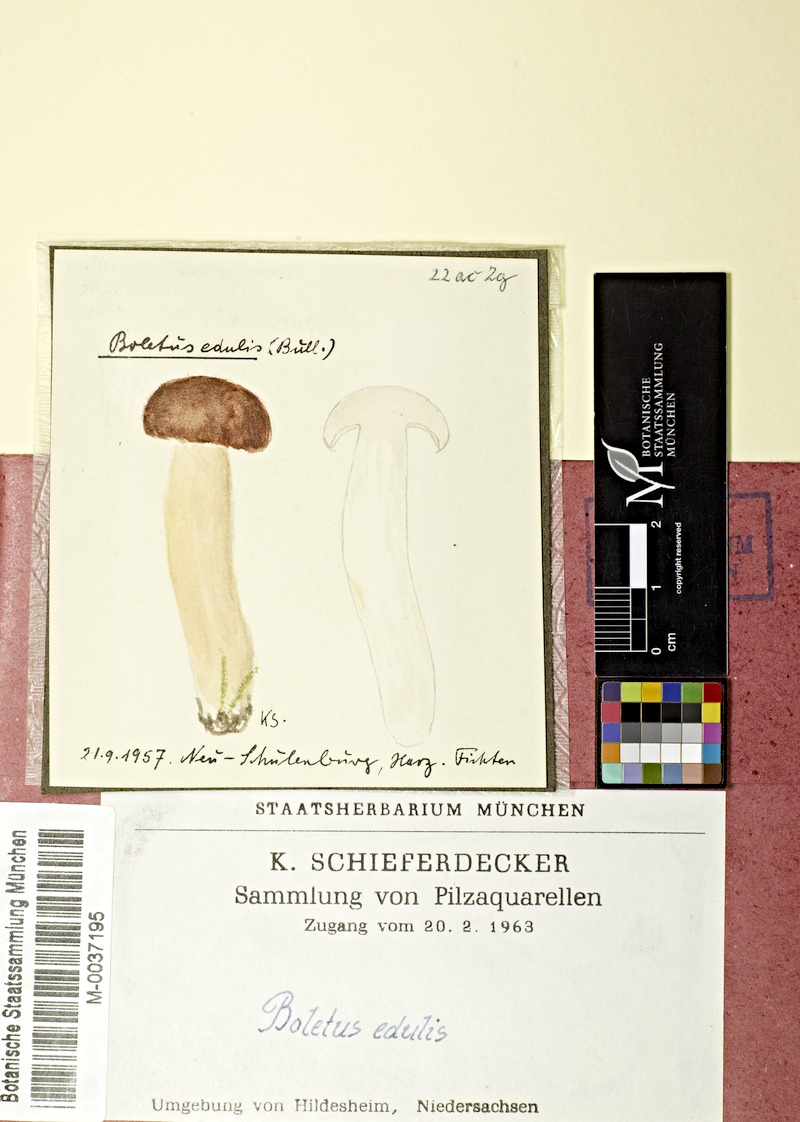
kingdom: Fungi
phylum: Basidiomycota
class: Agaricomycetes
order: Boletales
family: Boletaceae
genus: Boletus
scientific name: Boletus edulis
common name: Cep
